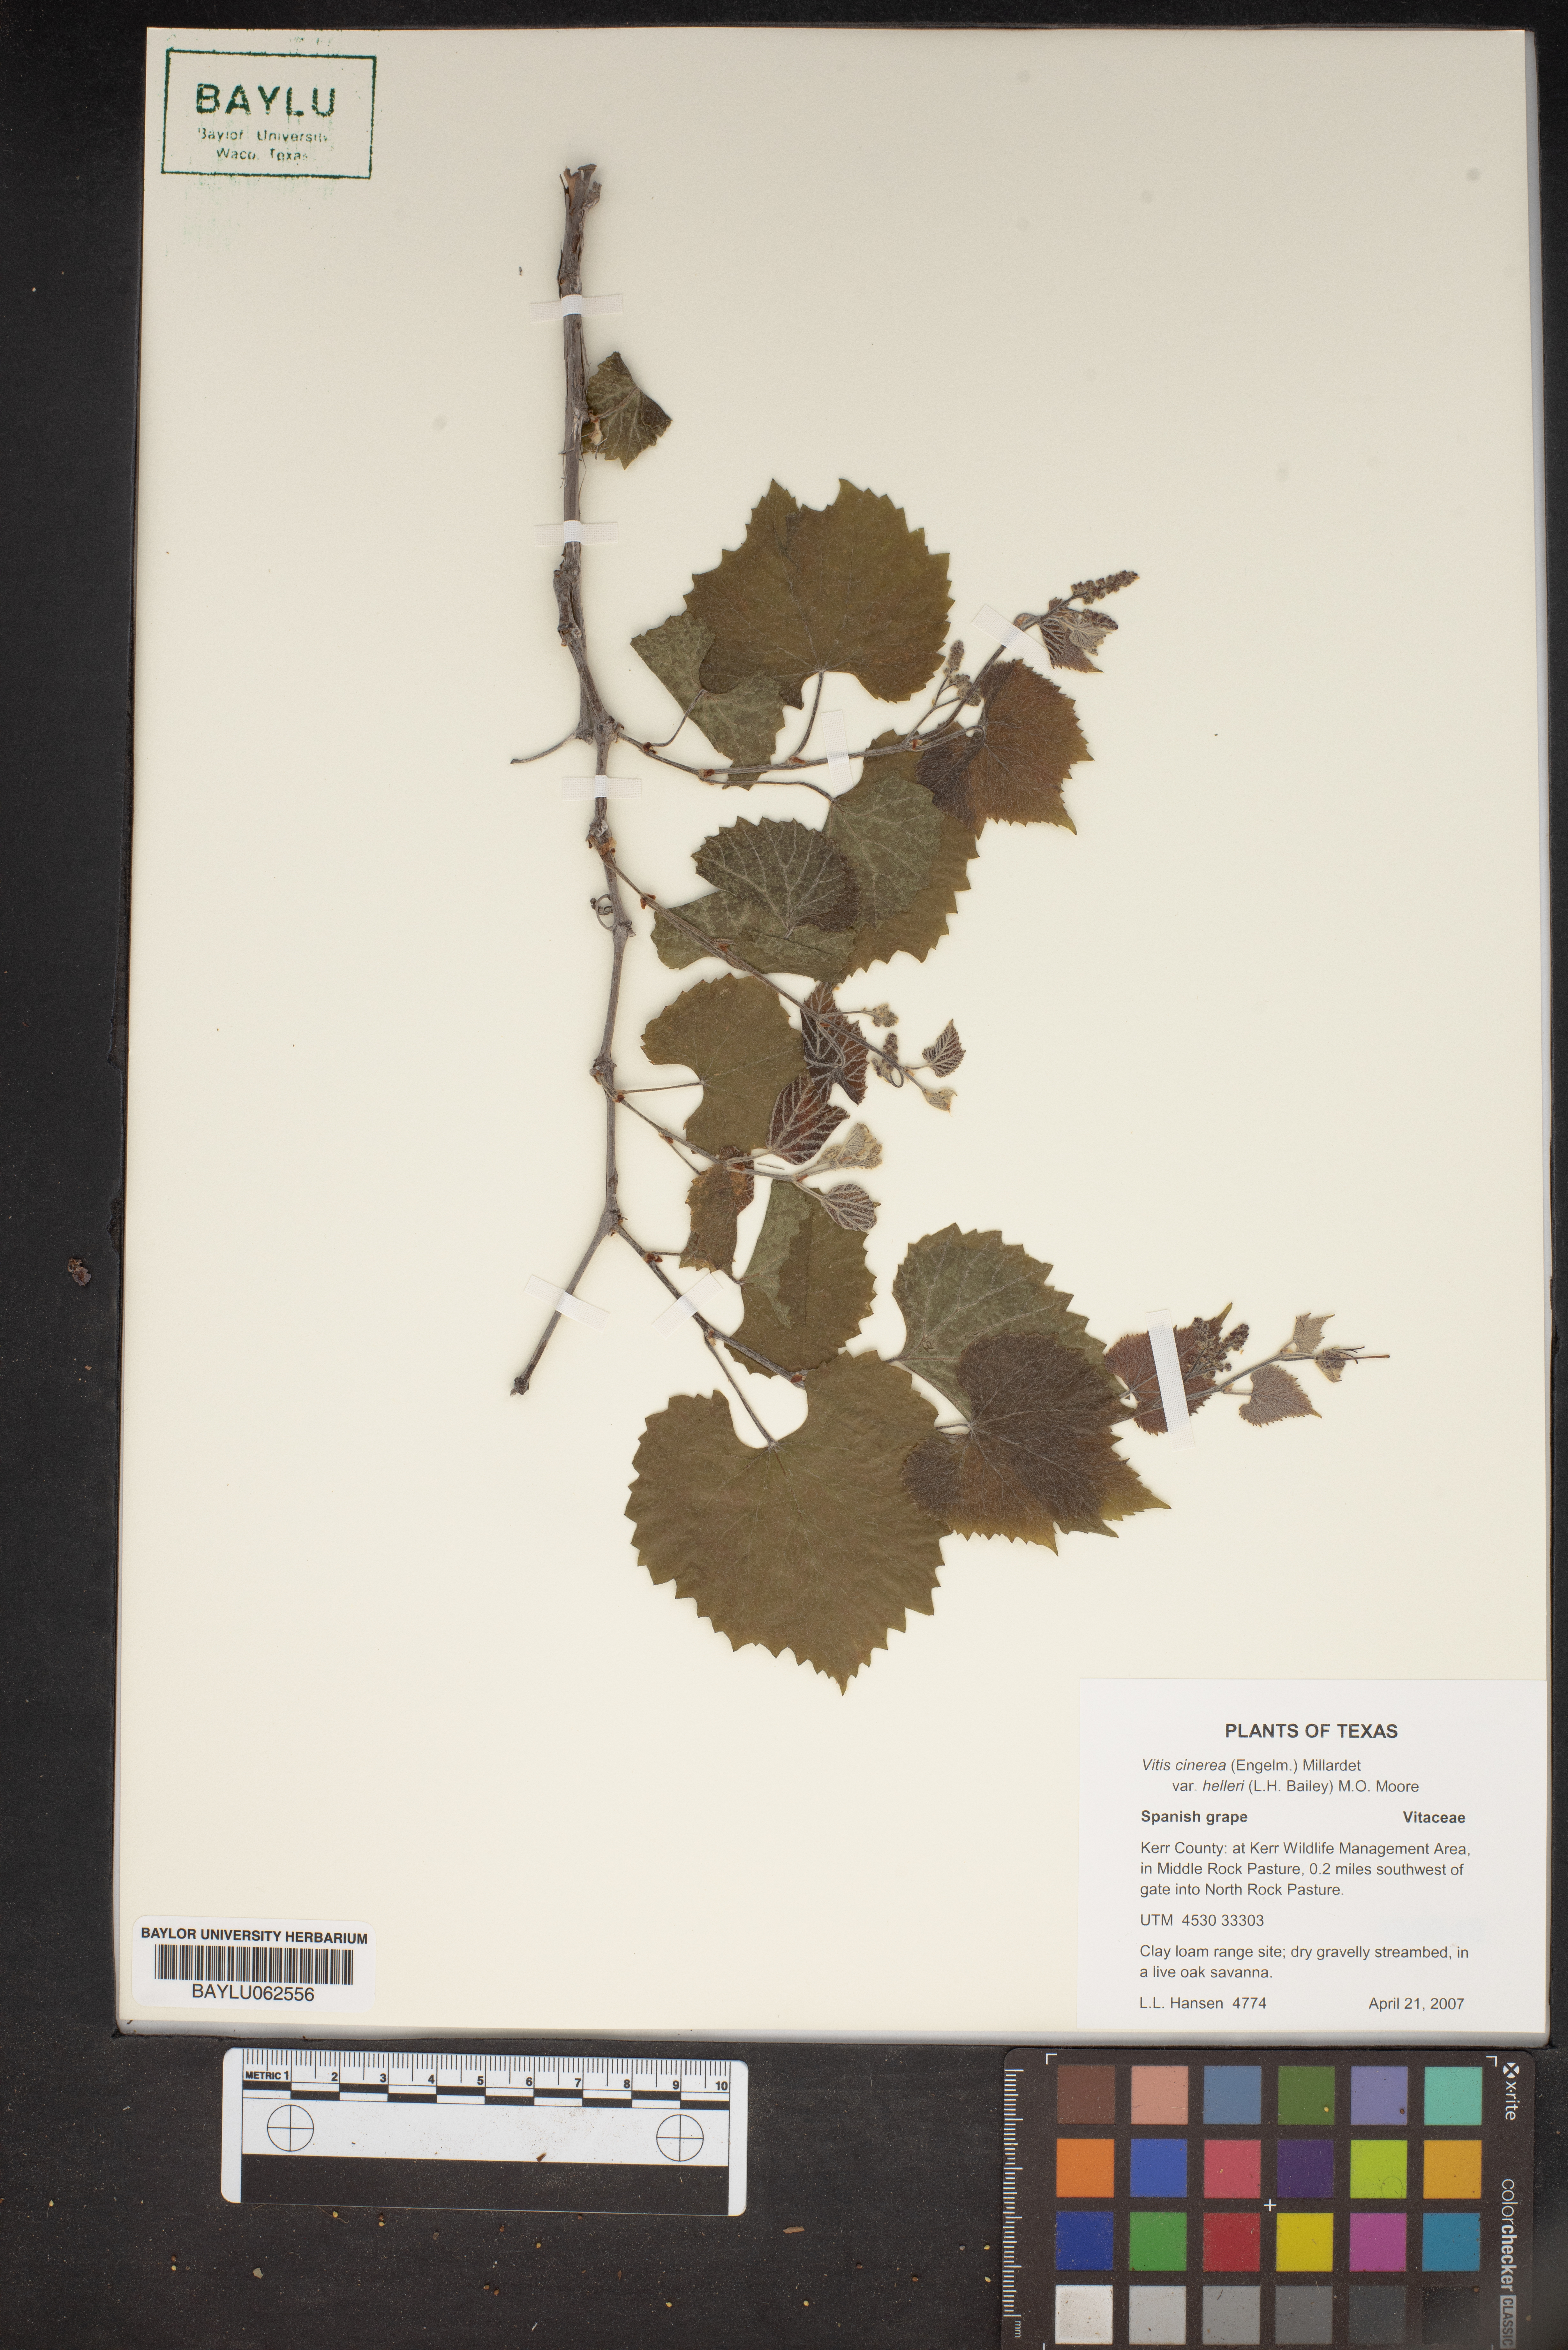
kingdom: Plantae
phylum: Tracheophyta
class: Magnoliopsida
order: Vitales
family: Vitaceae
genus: Vitis
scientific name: Vitis cinerea
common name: Ashy grape
